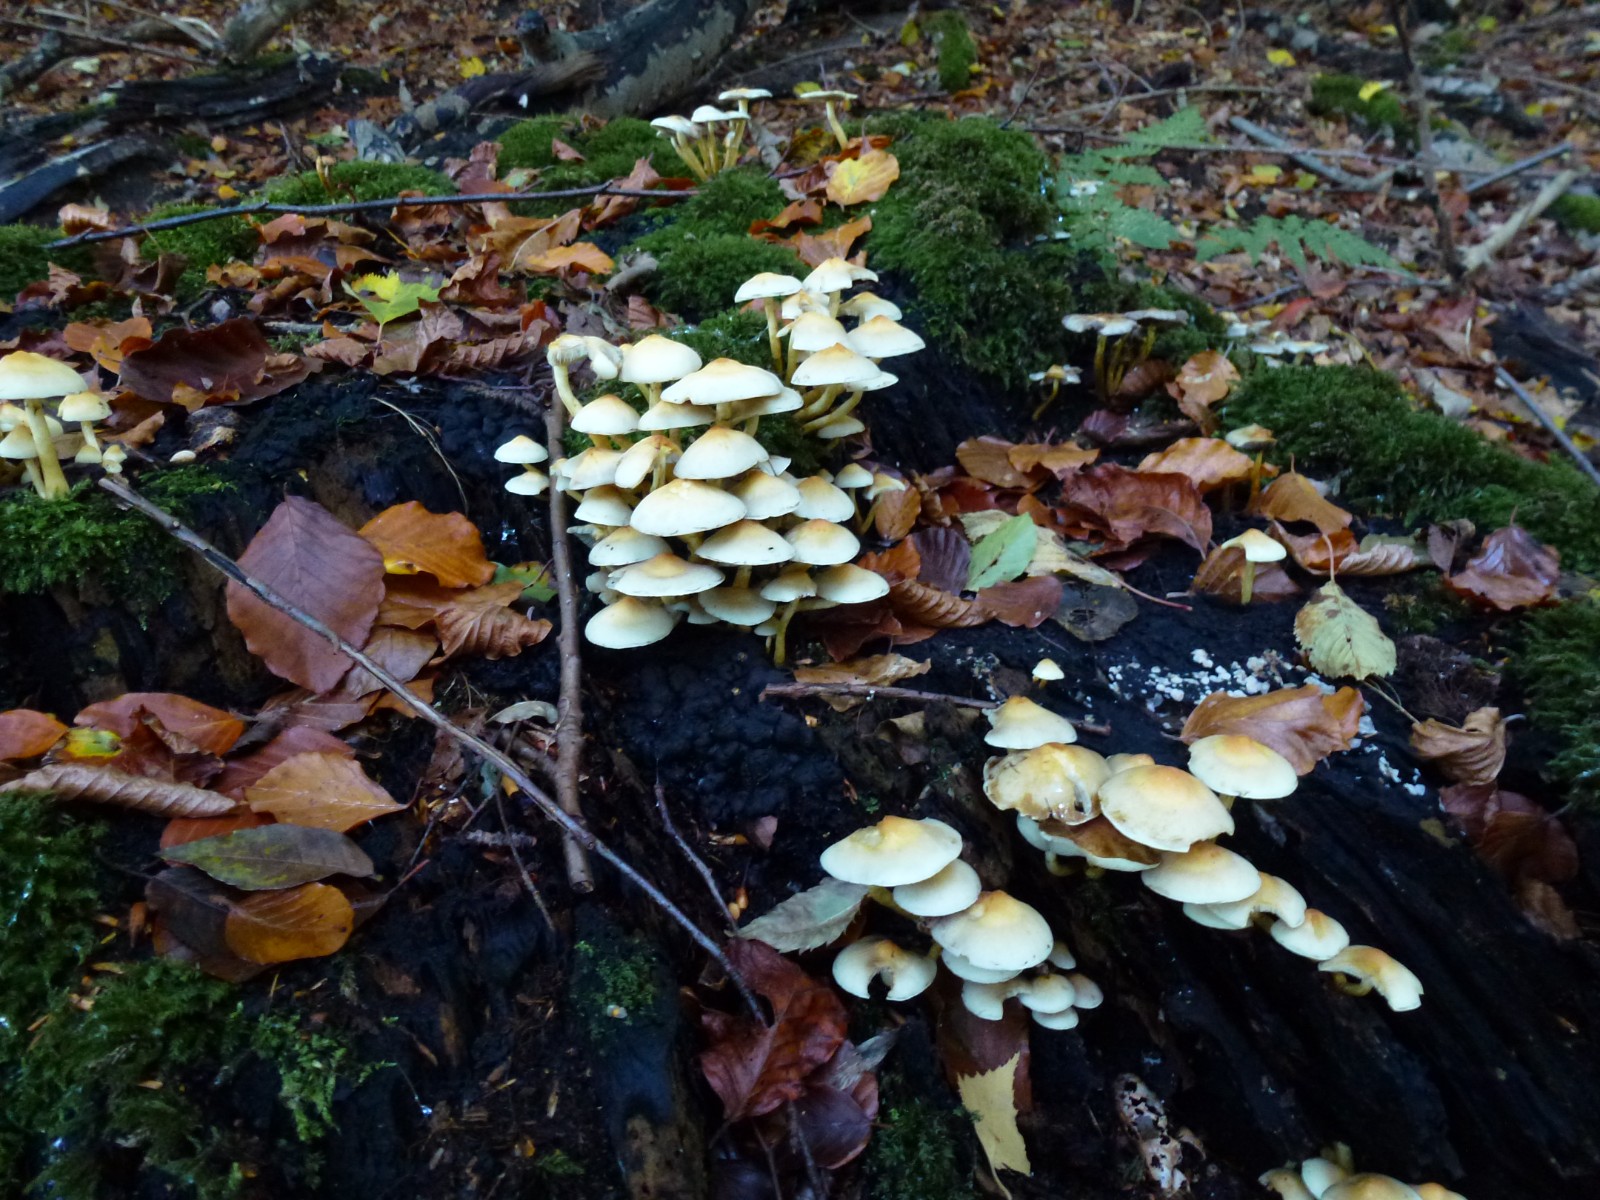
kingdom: Fungi
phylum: Basidiomycota
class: Agaricomycetes
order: Agaricales
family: Strophariaceae
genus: Hypholoma
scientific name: Hypholoma fasciculare
